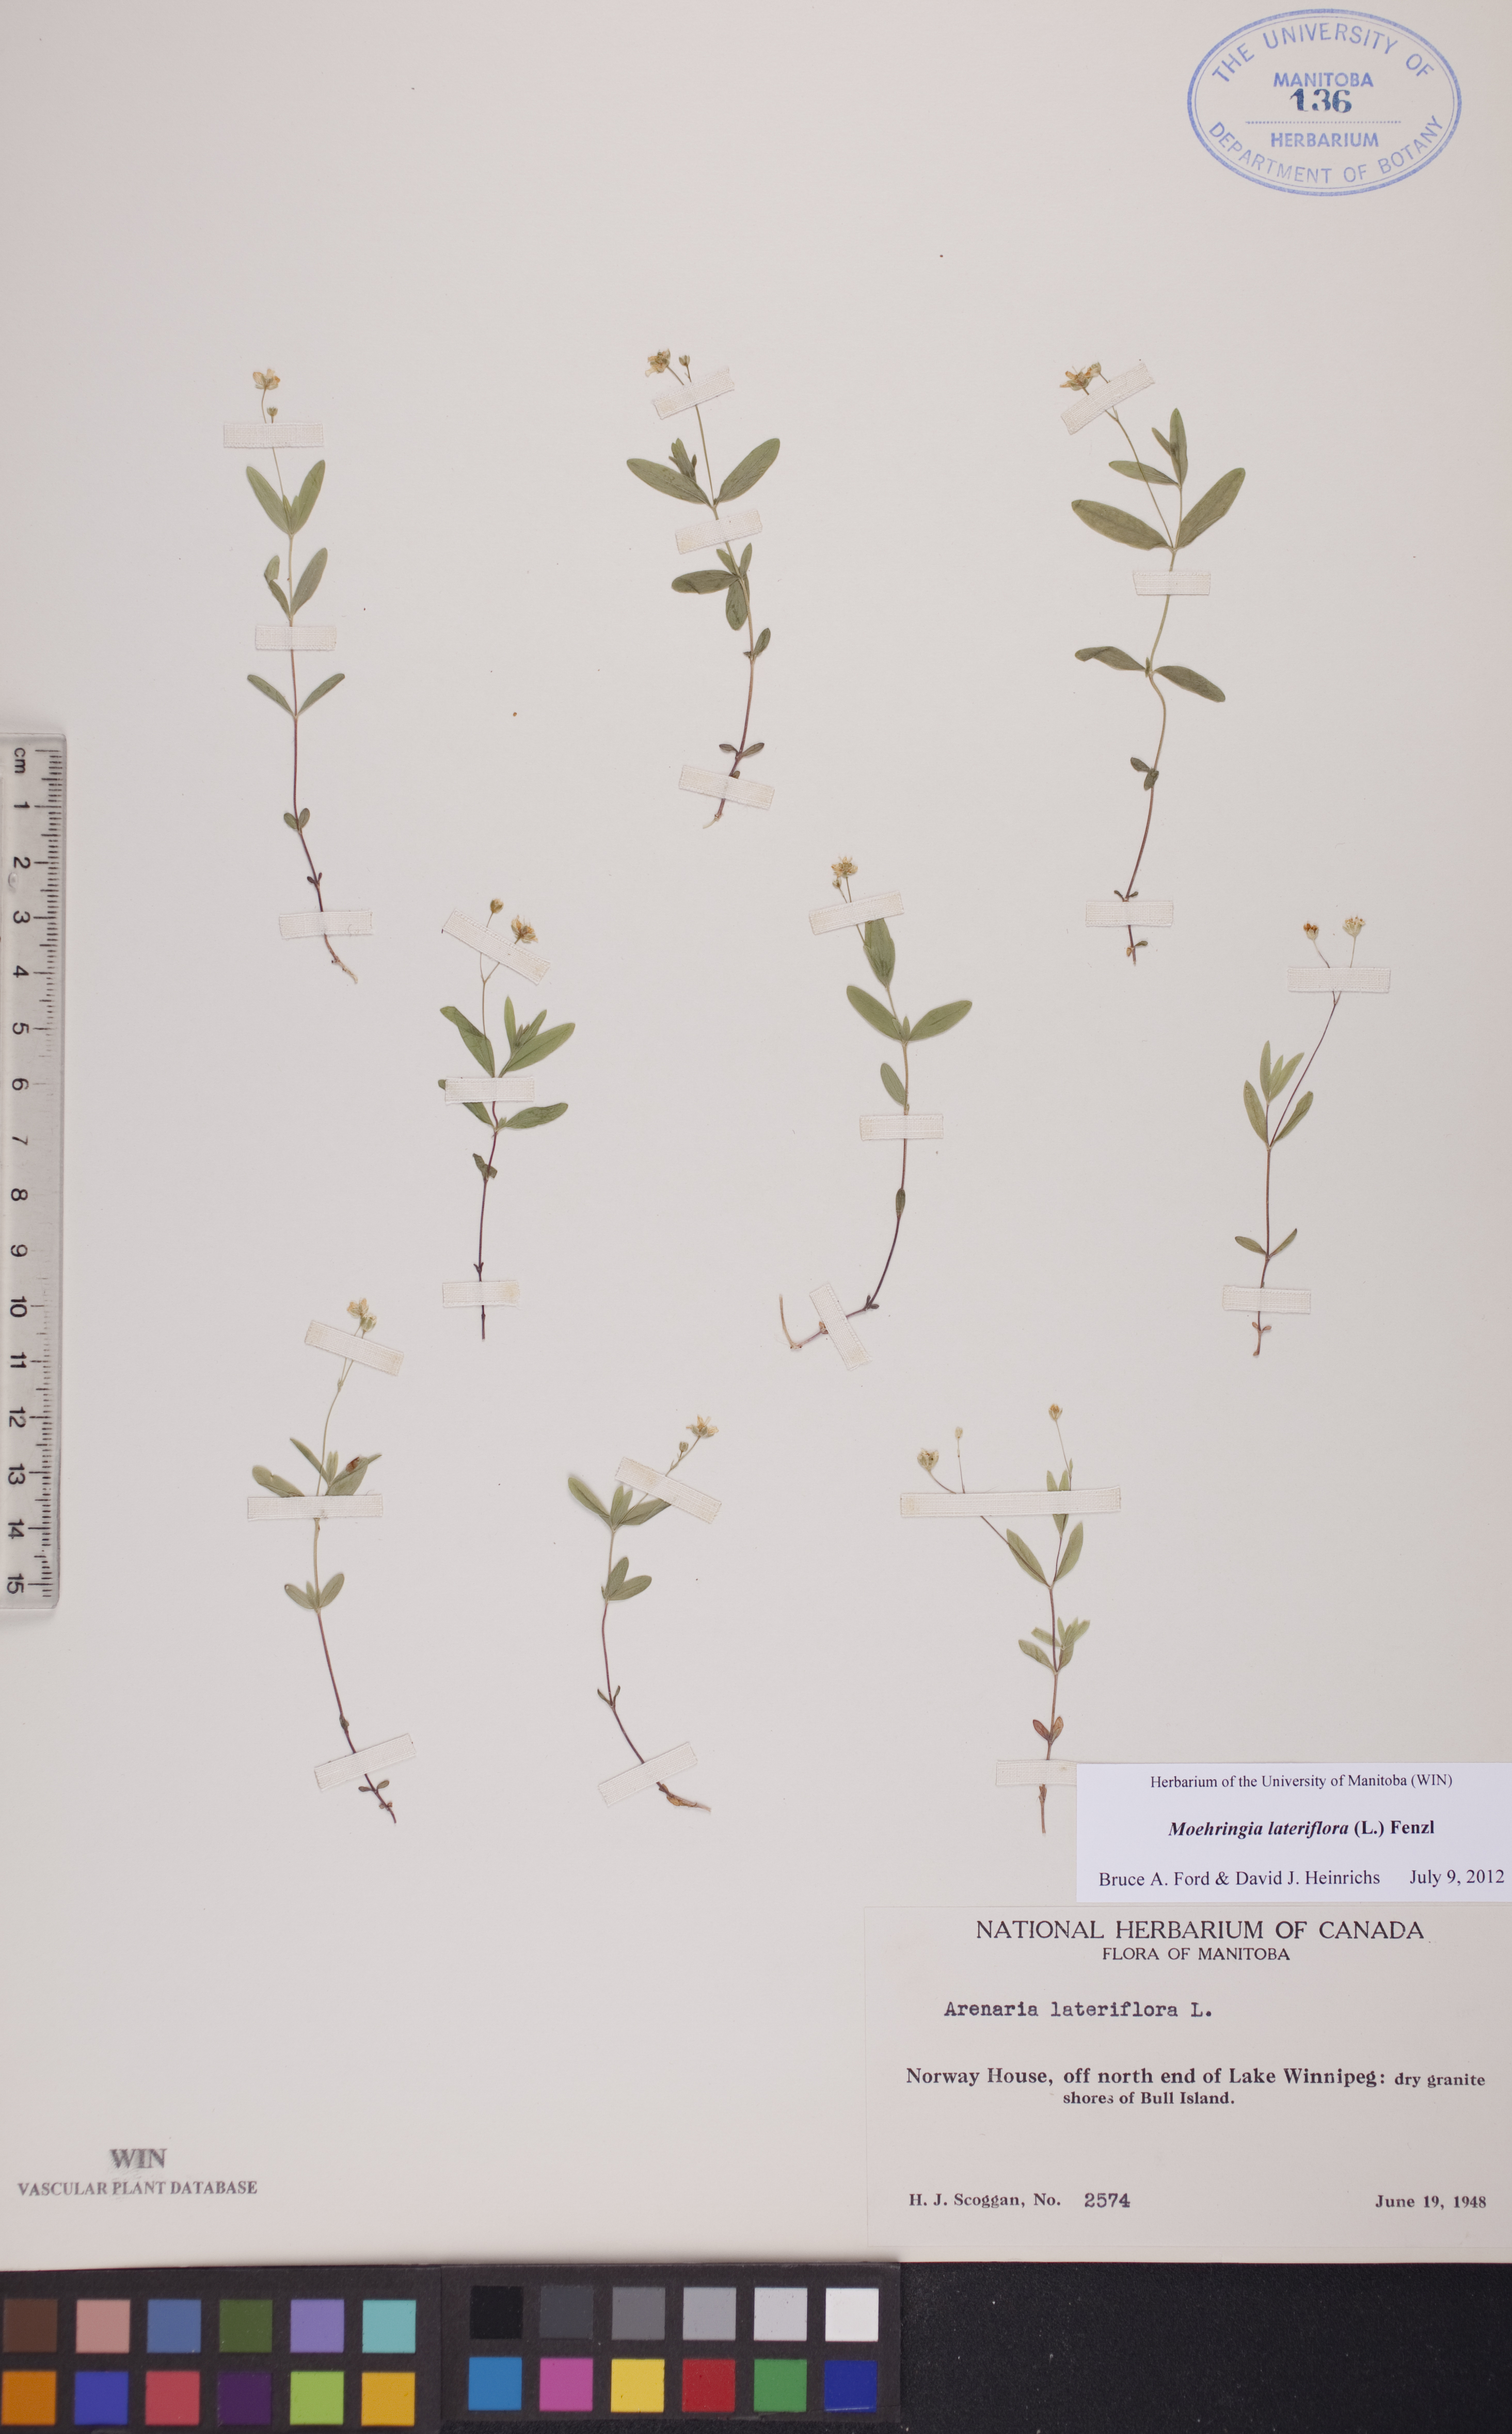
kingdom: Plantae
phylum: Tracheophyta
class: Magnoliopsida
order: Caryophyllales
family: Caryophyllaceae
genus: Moehringia
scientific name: Moehringia lateriflora
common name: Blunt-leaved sandwort
